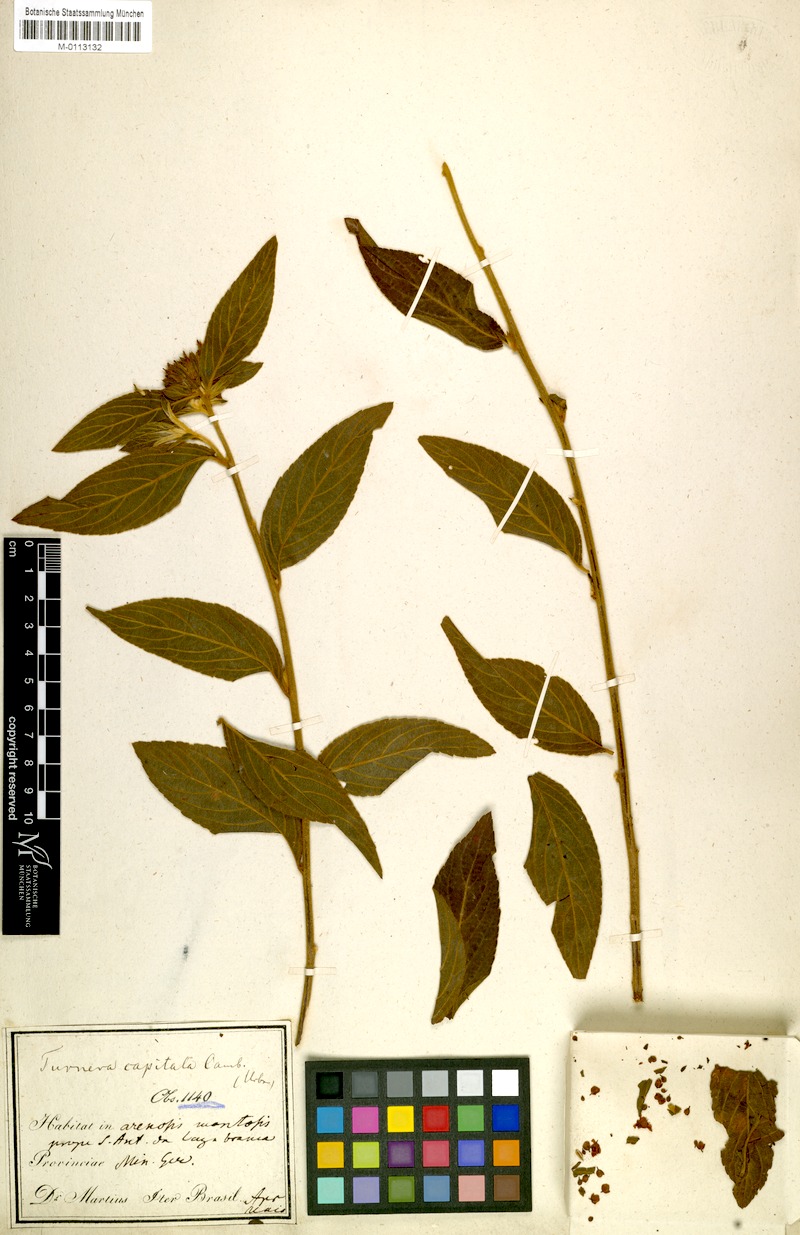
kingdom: Plantae
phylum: Tracheophyta
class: Magnoliopsida
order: Malpighiales
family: Turneraceae
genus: Oxossia
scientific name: Oxossia capitata
